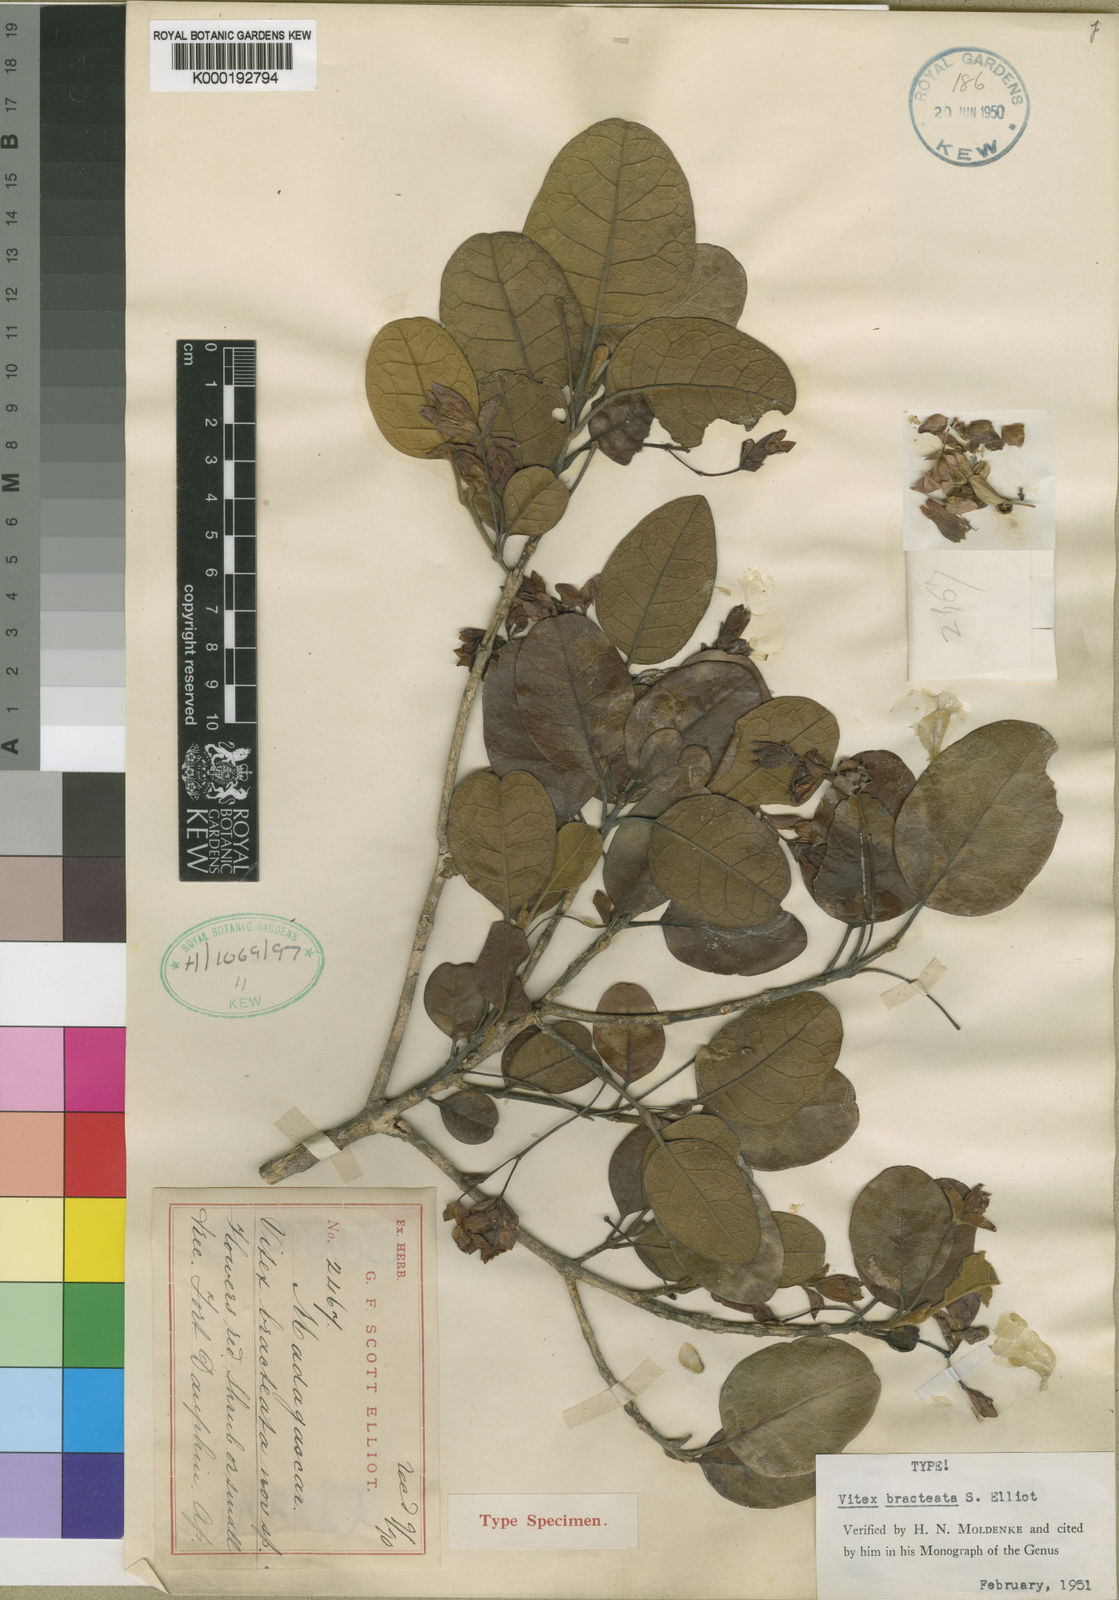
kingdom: Plantae
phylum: Tracheophyta
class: Magnoliopsida
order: Lamiales
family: Lamiaceae
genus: Vitex
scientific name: Vitex bracteata
